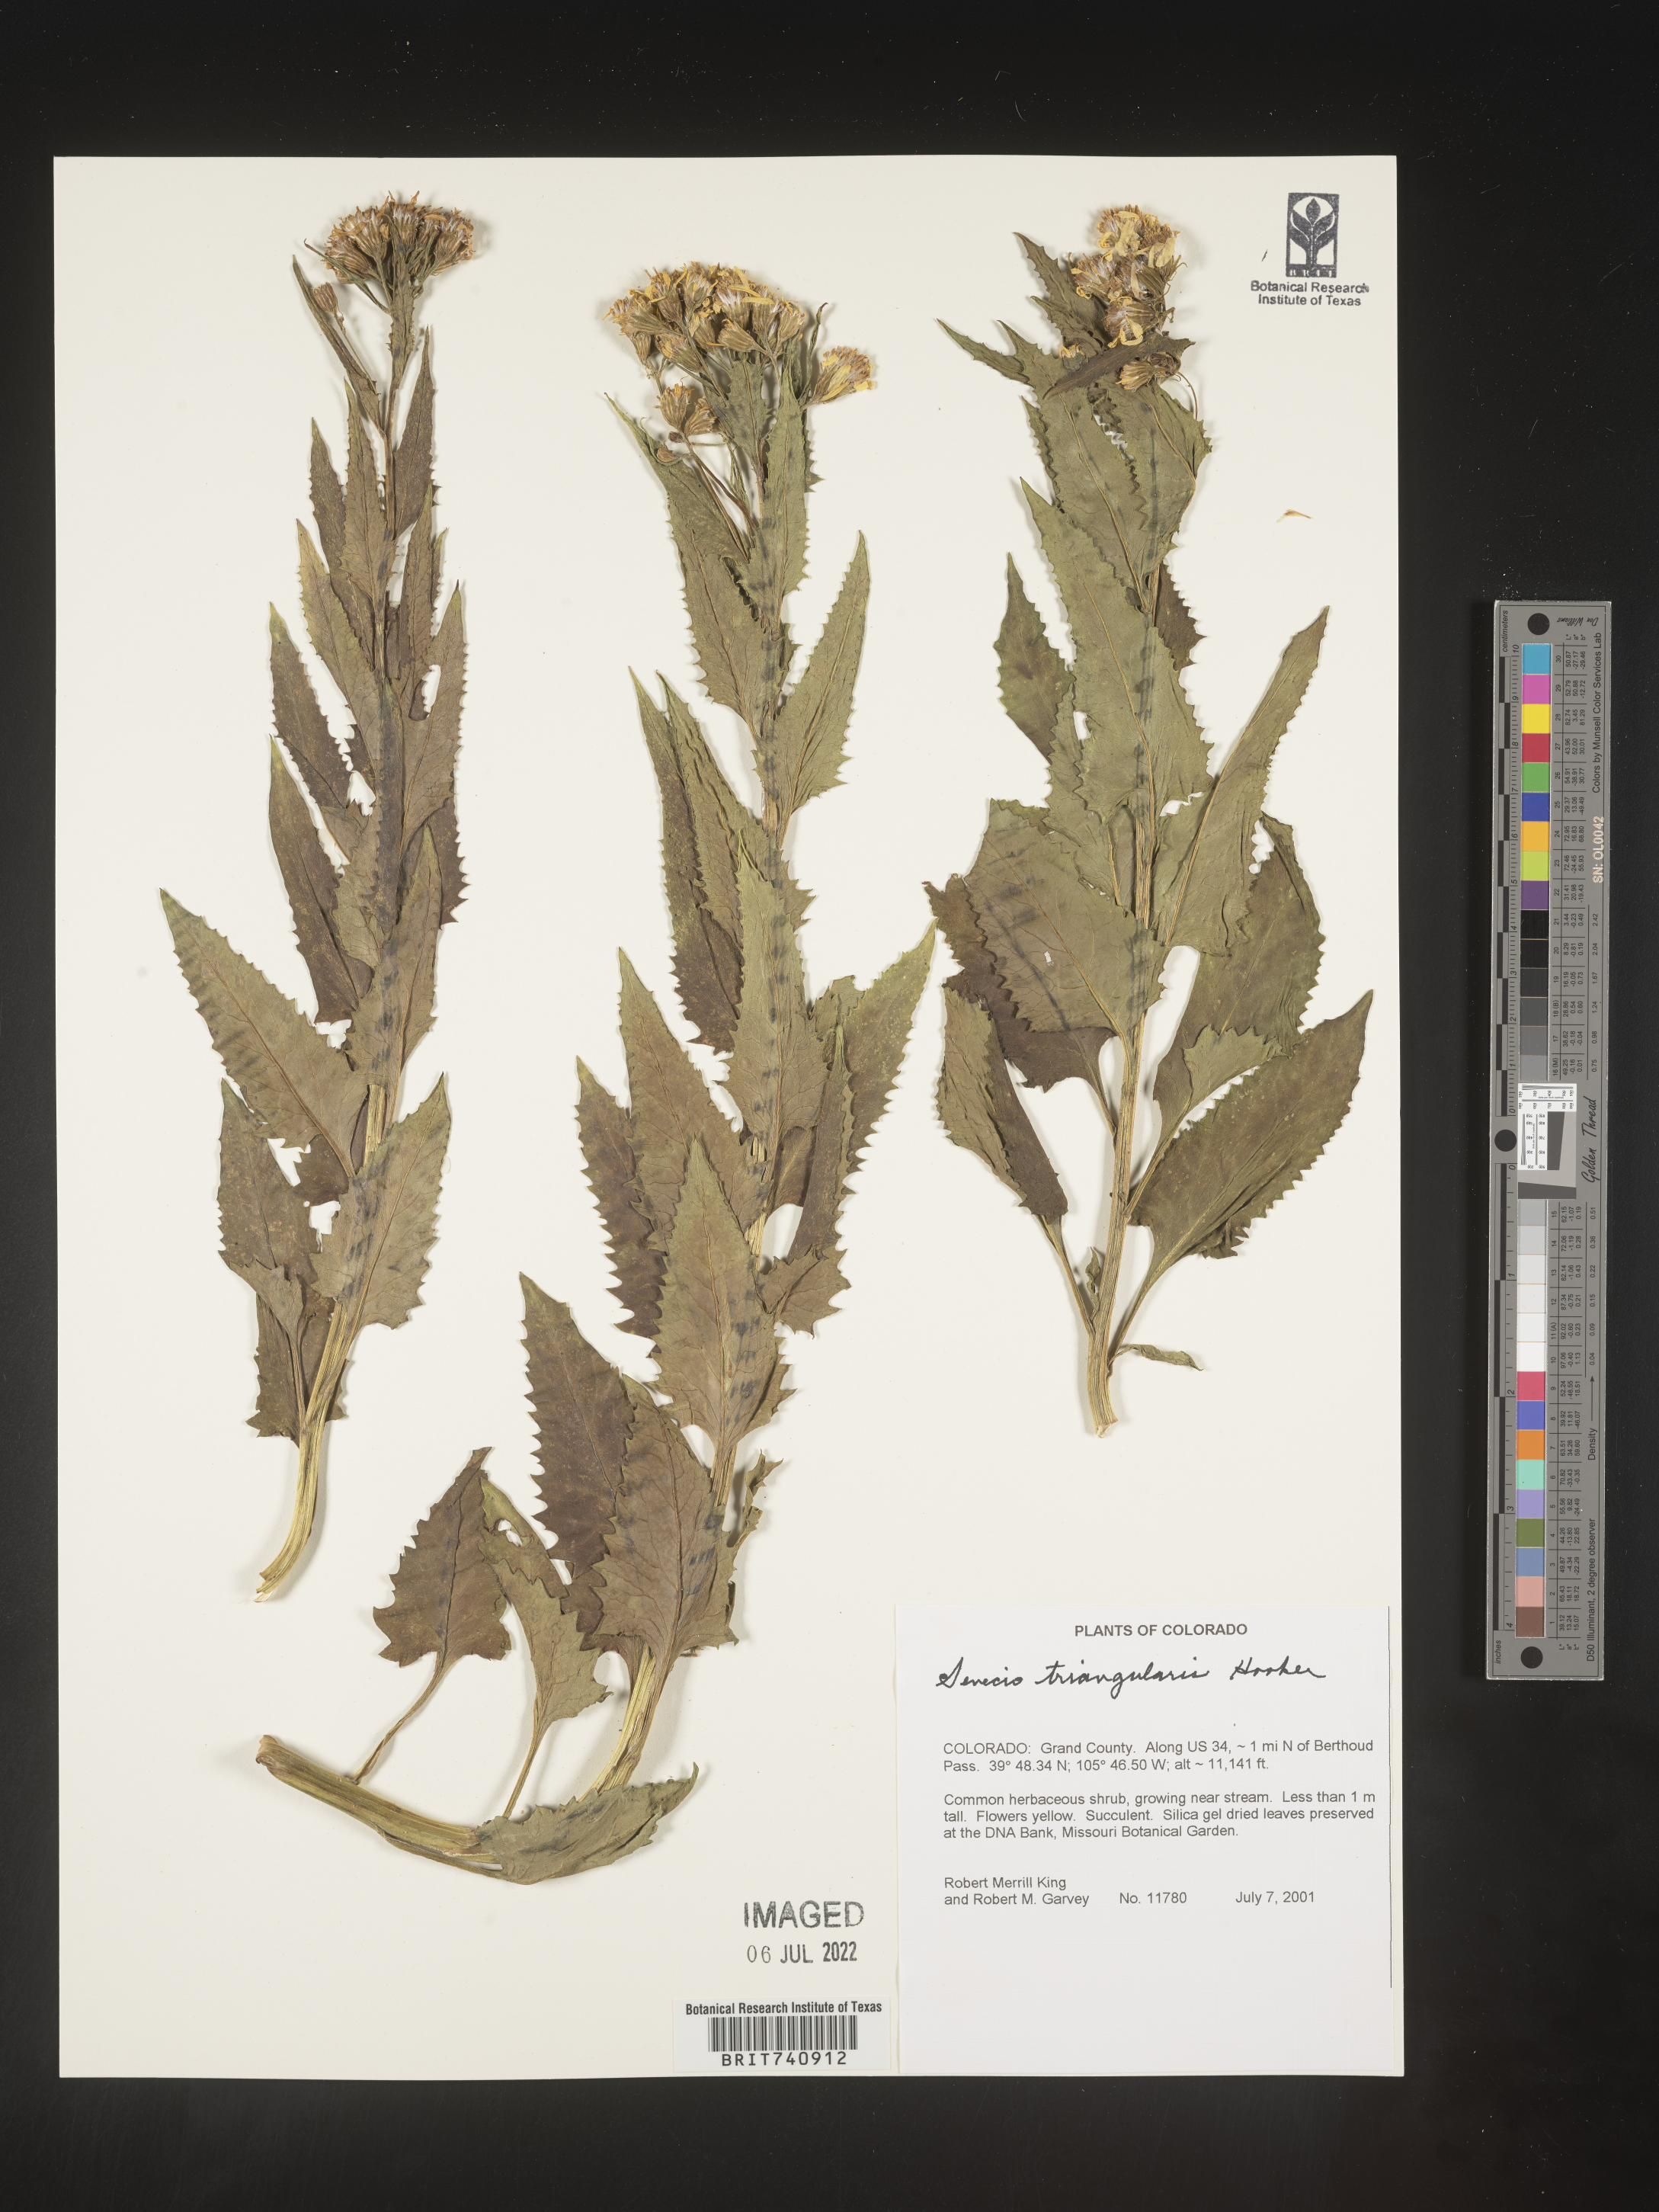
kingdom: Plantae
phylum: Tracheophyta
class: Magnoliopsida
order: Asterales
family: Asteraceae
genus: Senecio
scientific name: Senecio triangularis
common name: Arrowleaf butterweed
